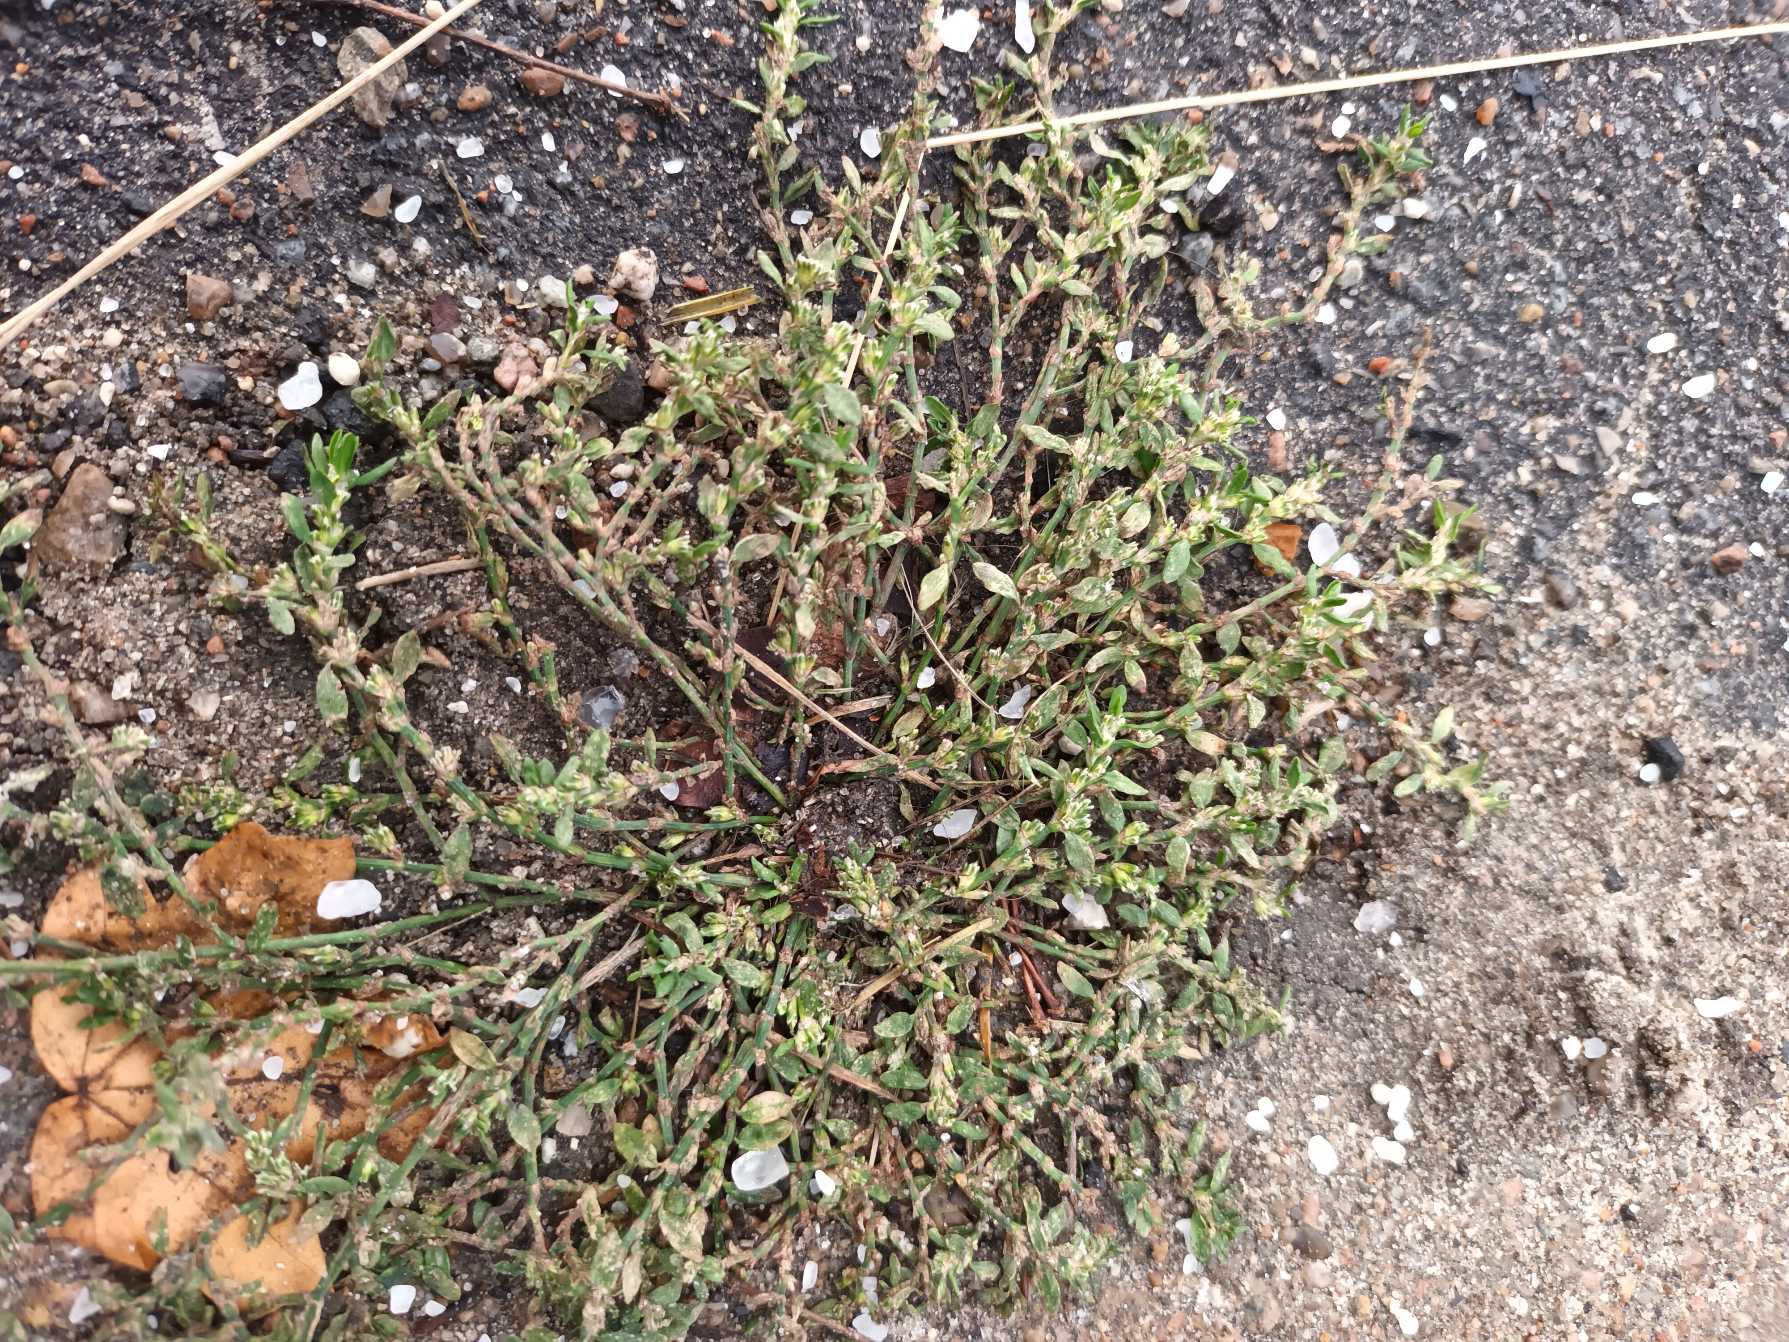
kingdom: Plantae
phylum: Tracheophyta
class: Magnoliopsida
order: Caryophyllales
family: Polygonaceae
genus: Polygonum
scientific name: Polygonum arenastrum
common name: Liggende vej-pileurt
